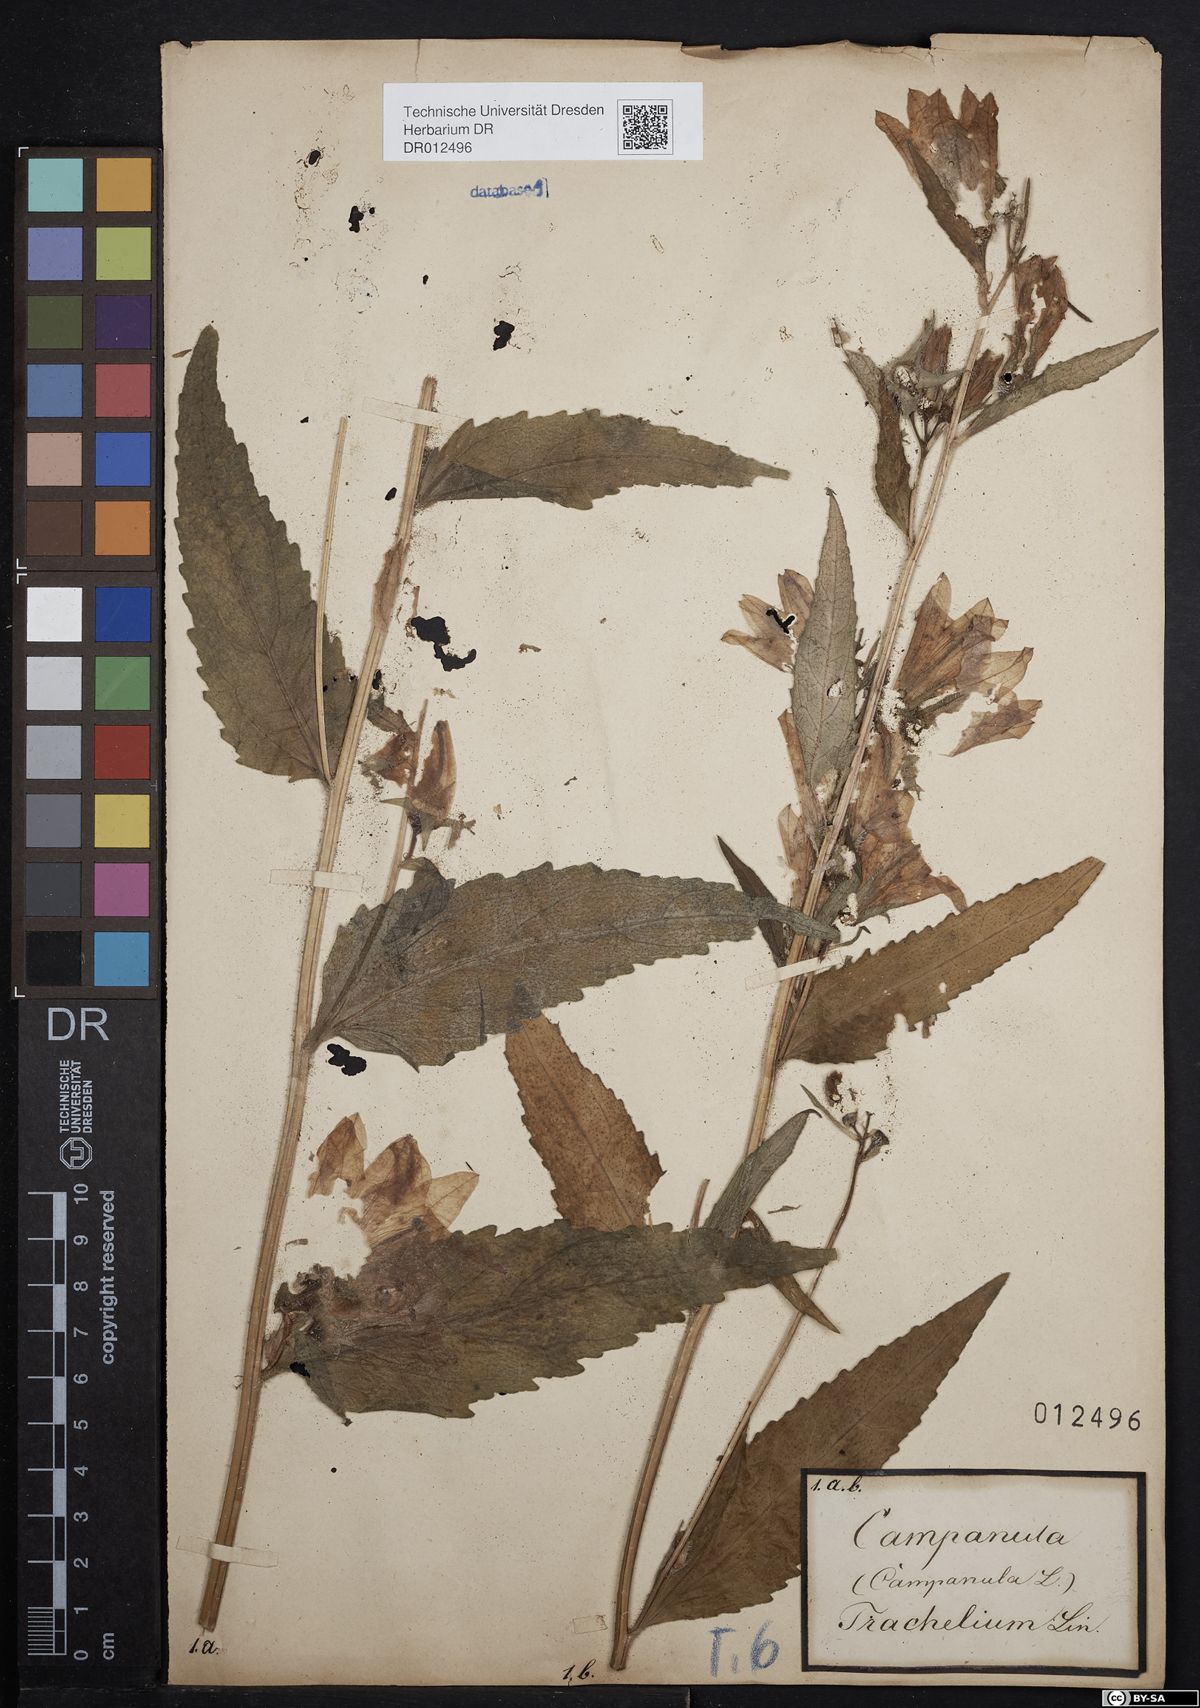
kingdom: Plantae
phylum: Tracheophyta
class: Magnoliopsida
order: Asterales
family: Campanulaceae
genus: Campanula
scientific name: Campanula trachelium
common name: Nettle-leaved bellflower
